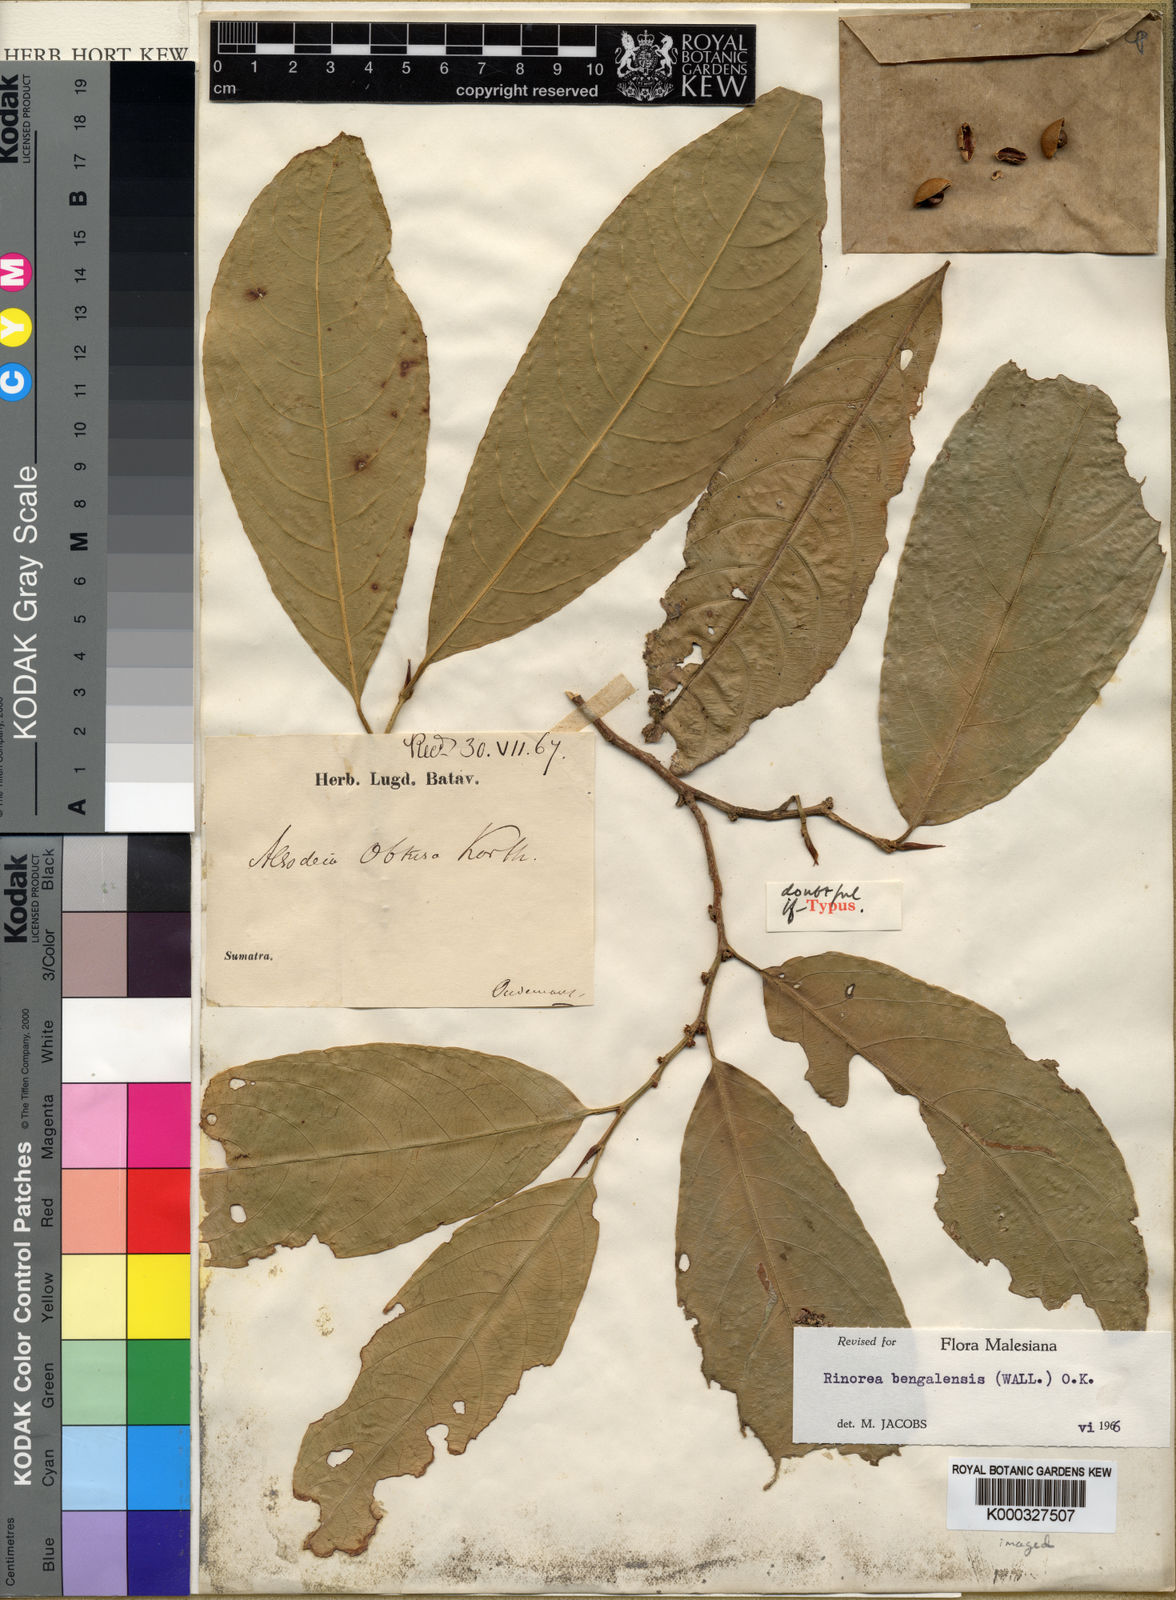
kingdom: Plantae
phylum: Tracheophyta
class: Magnoliopsida
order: Malpighiales
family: Violaceae
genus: Rinorea
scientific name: Rinorea bengalensis
